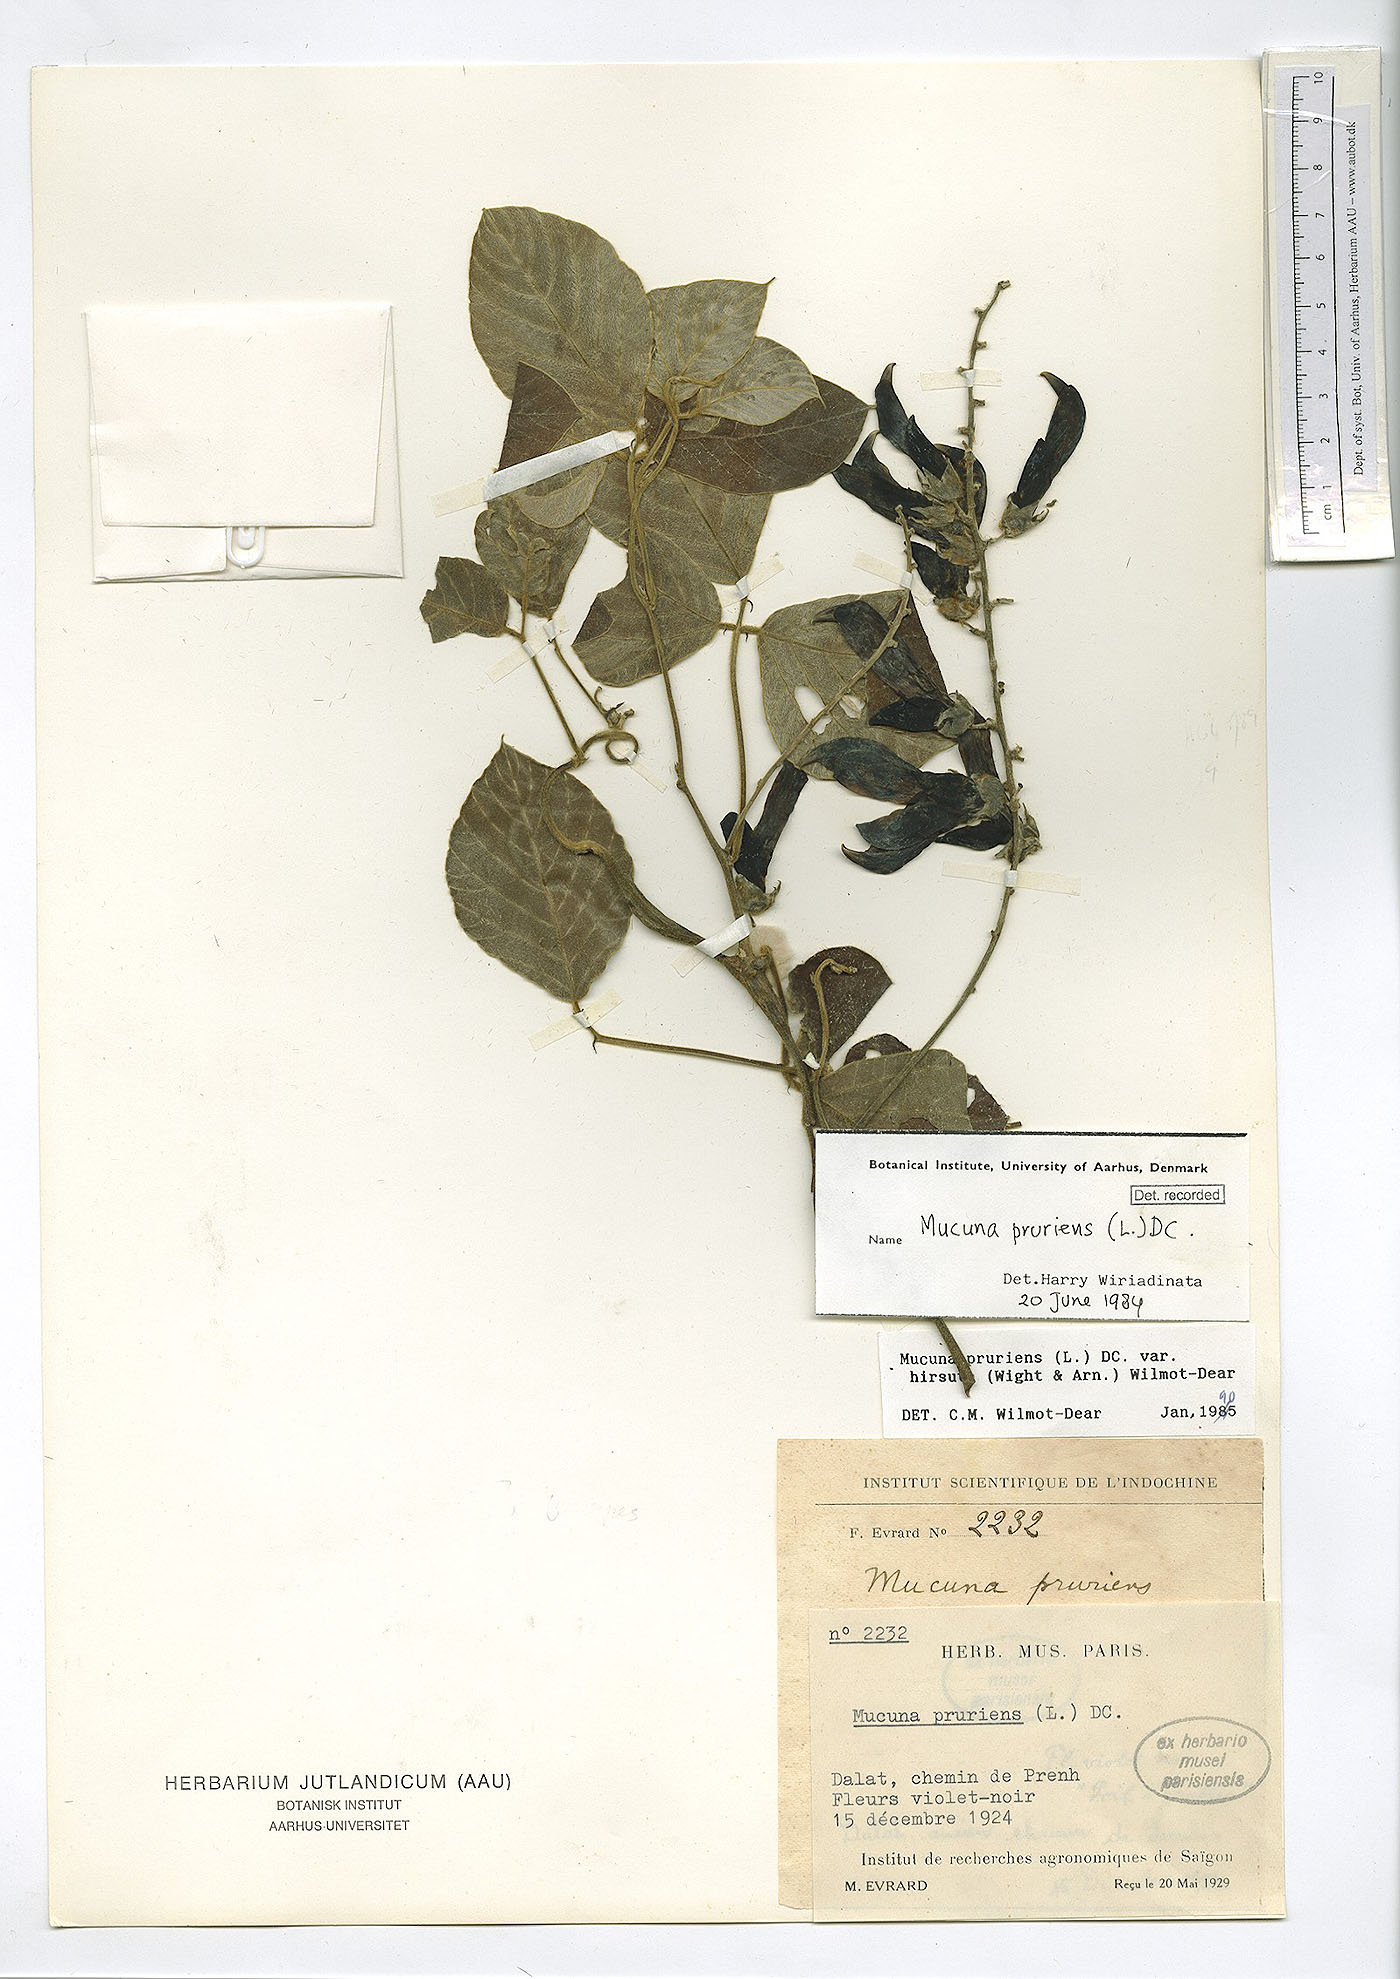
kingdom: Plantae
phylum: Tracheophyta
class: Magnoliopsida
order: Fabales
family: Fabaceae
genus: Mucuna
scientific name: Mucuna pruriens
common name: Cow-itch
